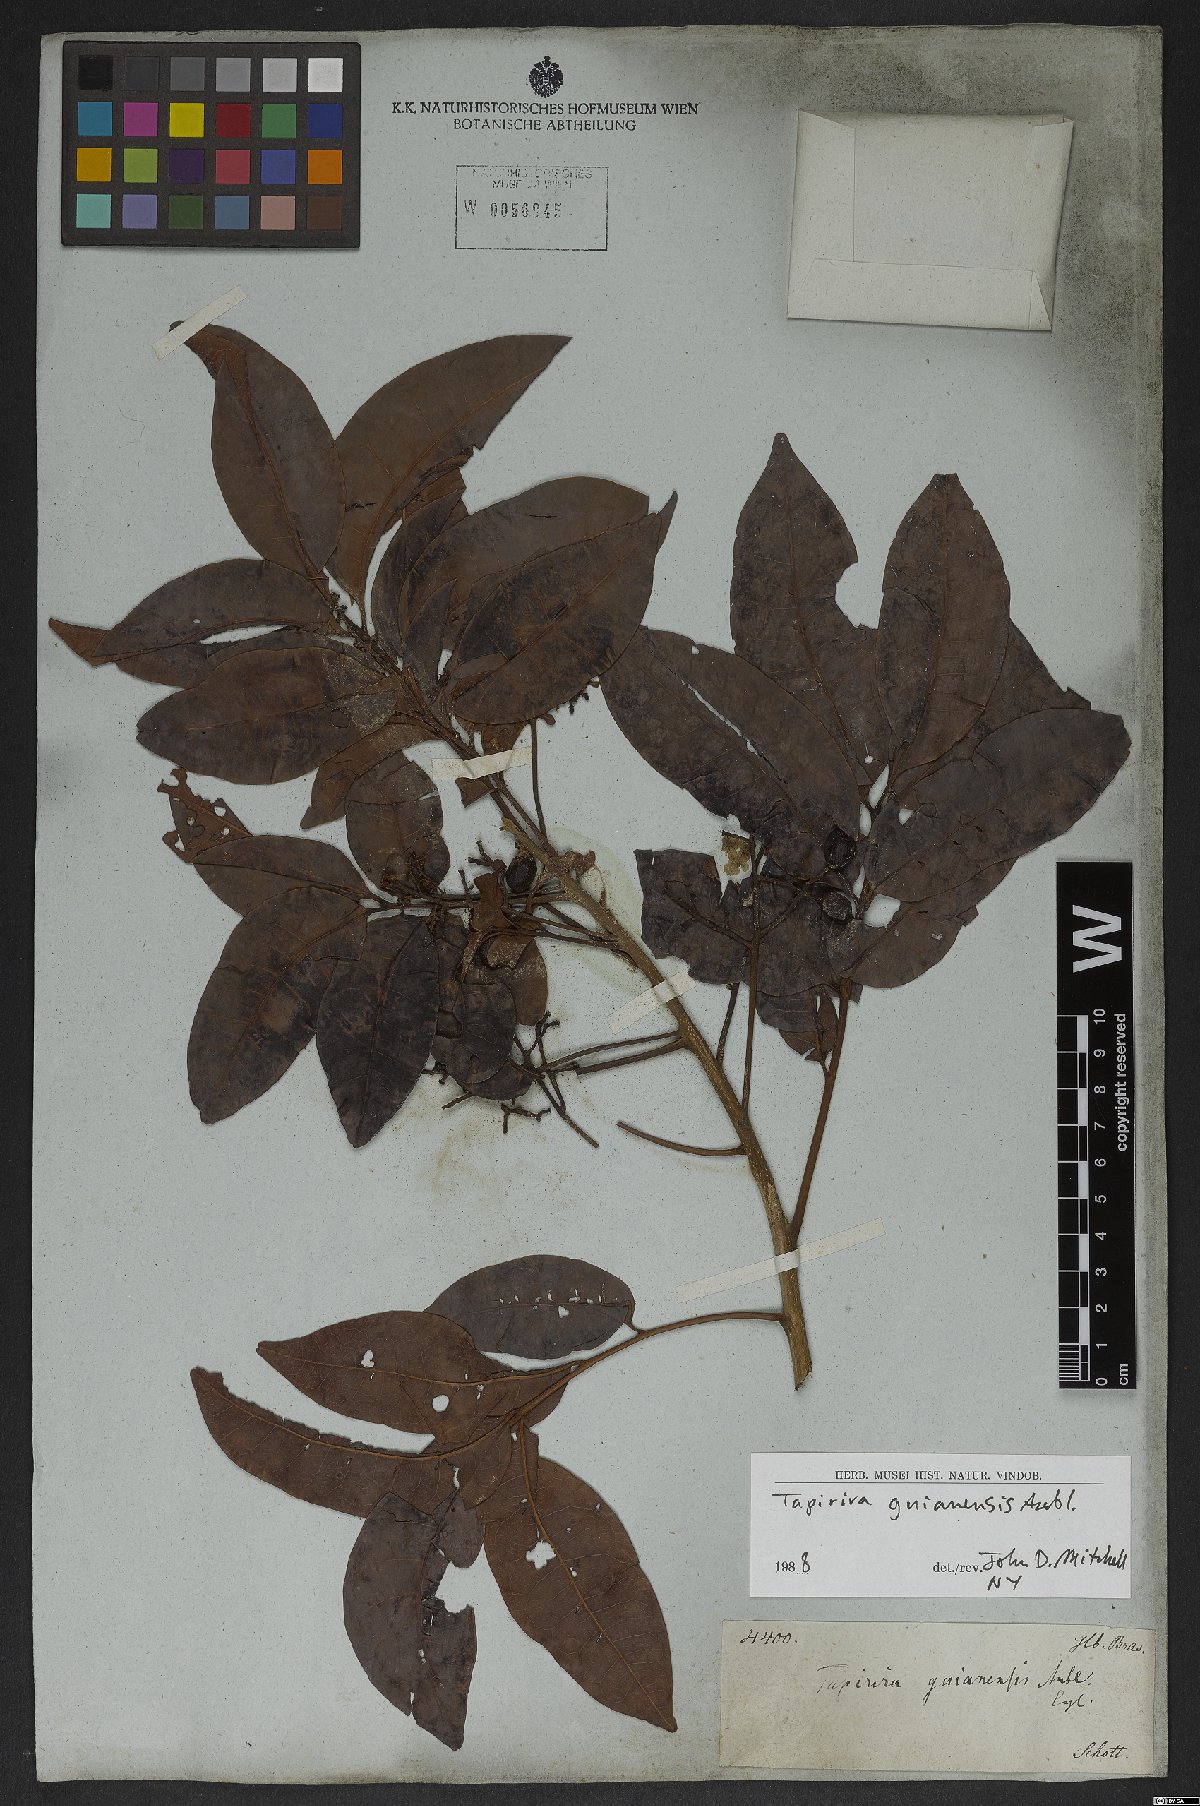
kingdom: Plantae
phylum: Tracheophyta
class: Magnoliopsida
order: Sapindales
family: Anacardiaceae
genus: Tapirira
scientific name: Tapirira guianensis
